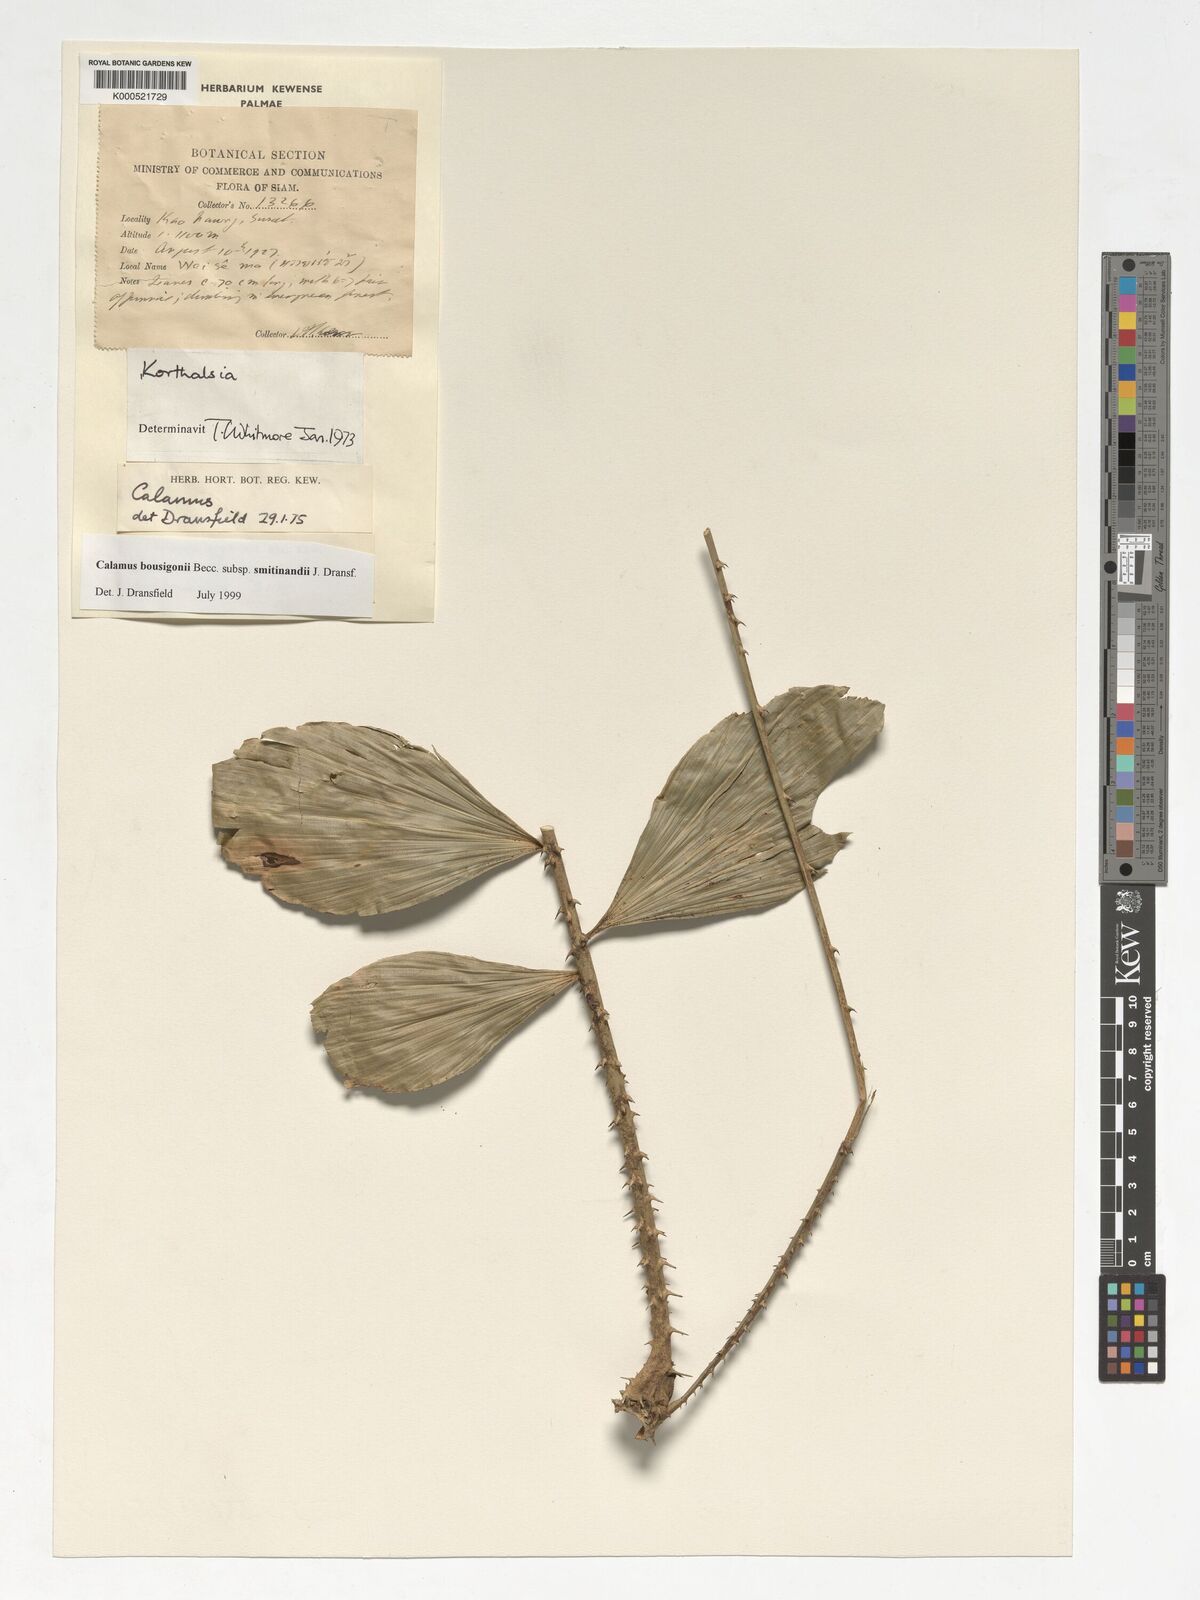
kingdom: Plantae
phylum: Tracheophyta
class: Liliopsida
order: Arecales
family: Arecaceae
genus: Calamus
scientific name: Calamus smitinandii
